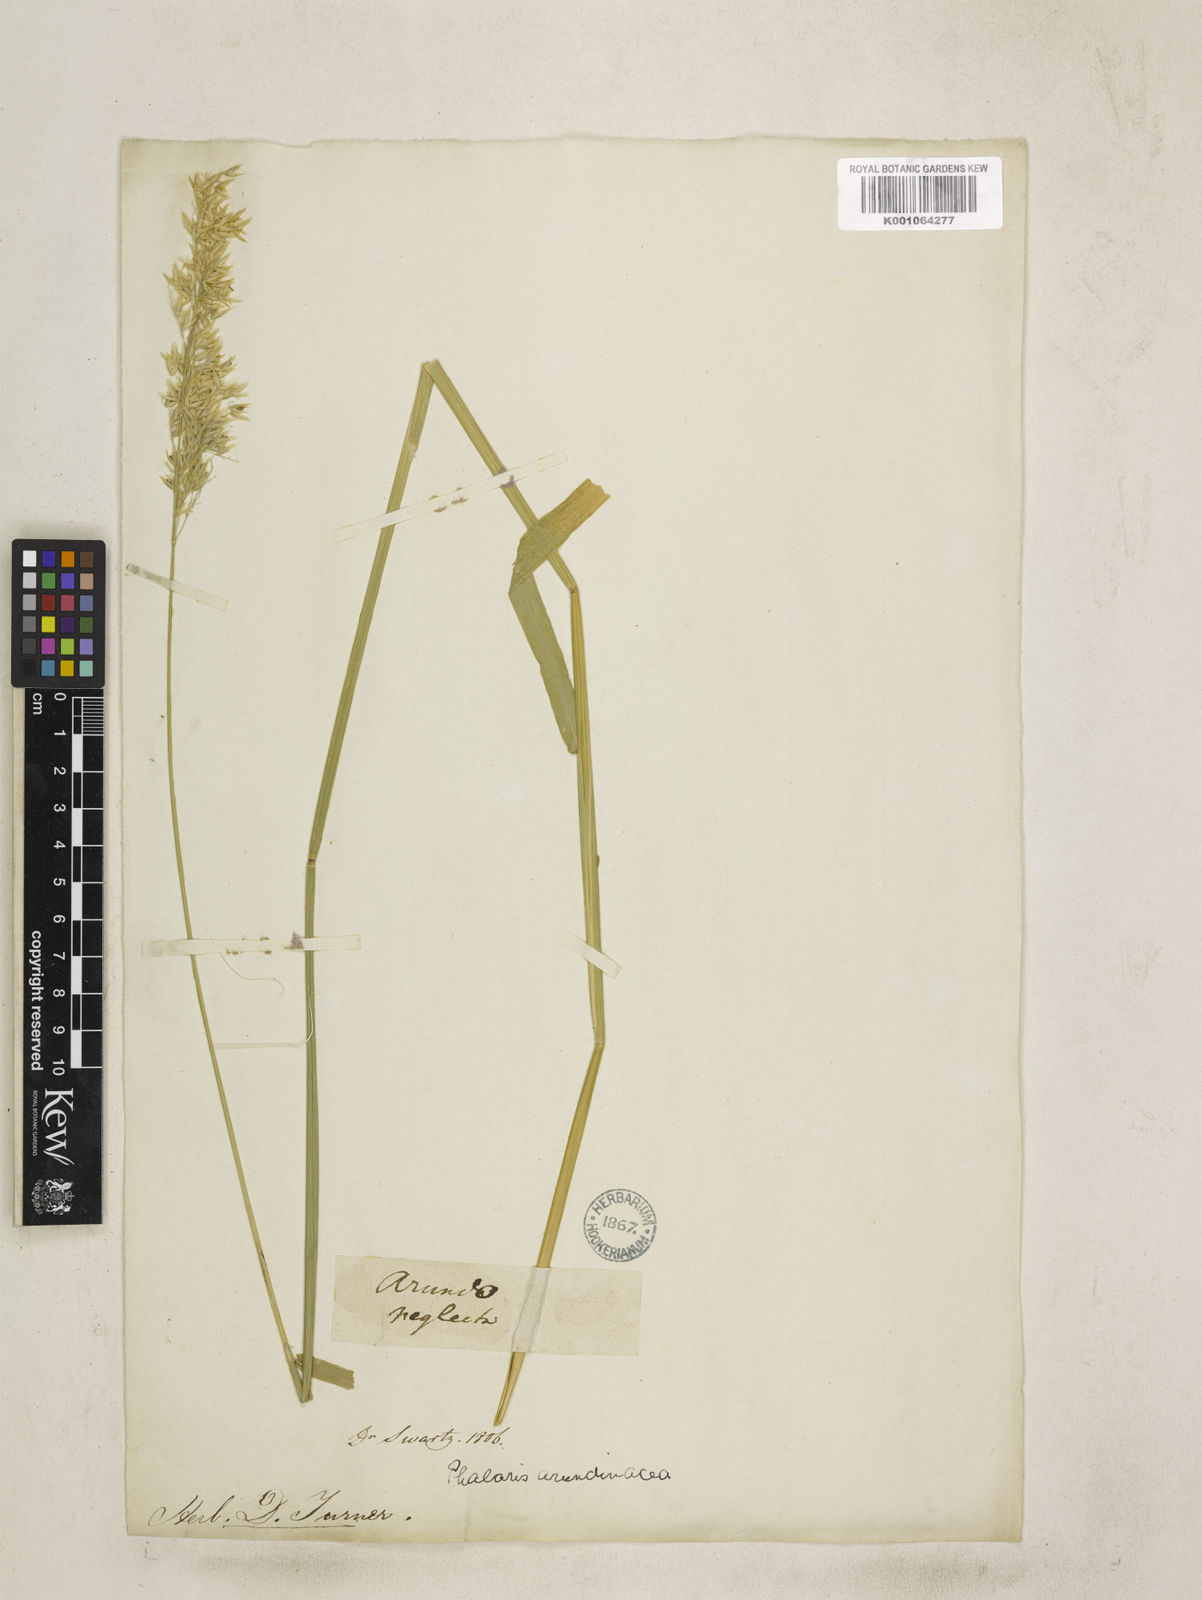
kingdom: Plantae
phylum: Tracheophyta
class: Liliopsida
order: Poales
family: Poaceae
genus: Phalaris
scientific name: Phalaris arundinacea
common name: Reed canary-grass
